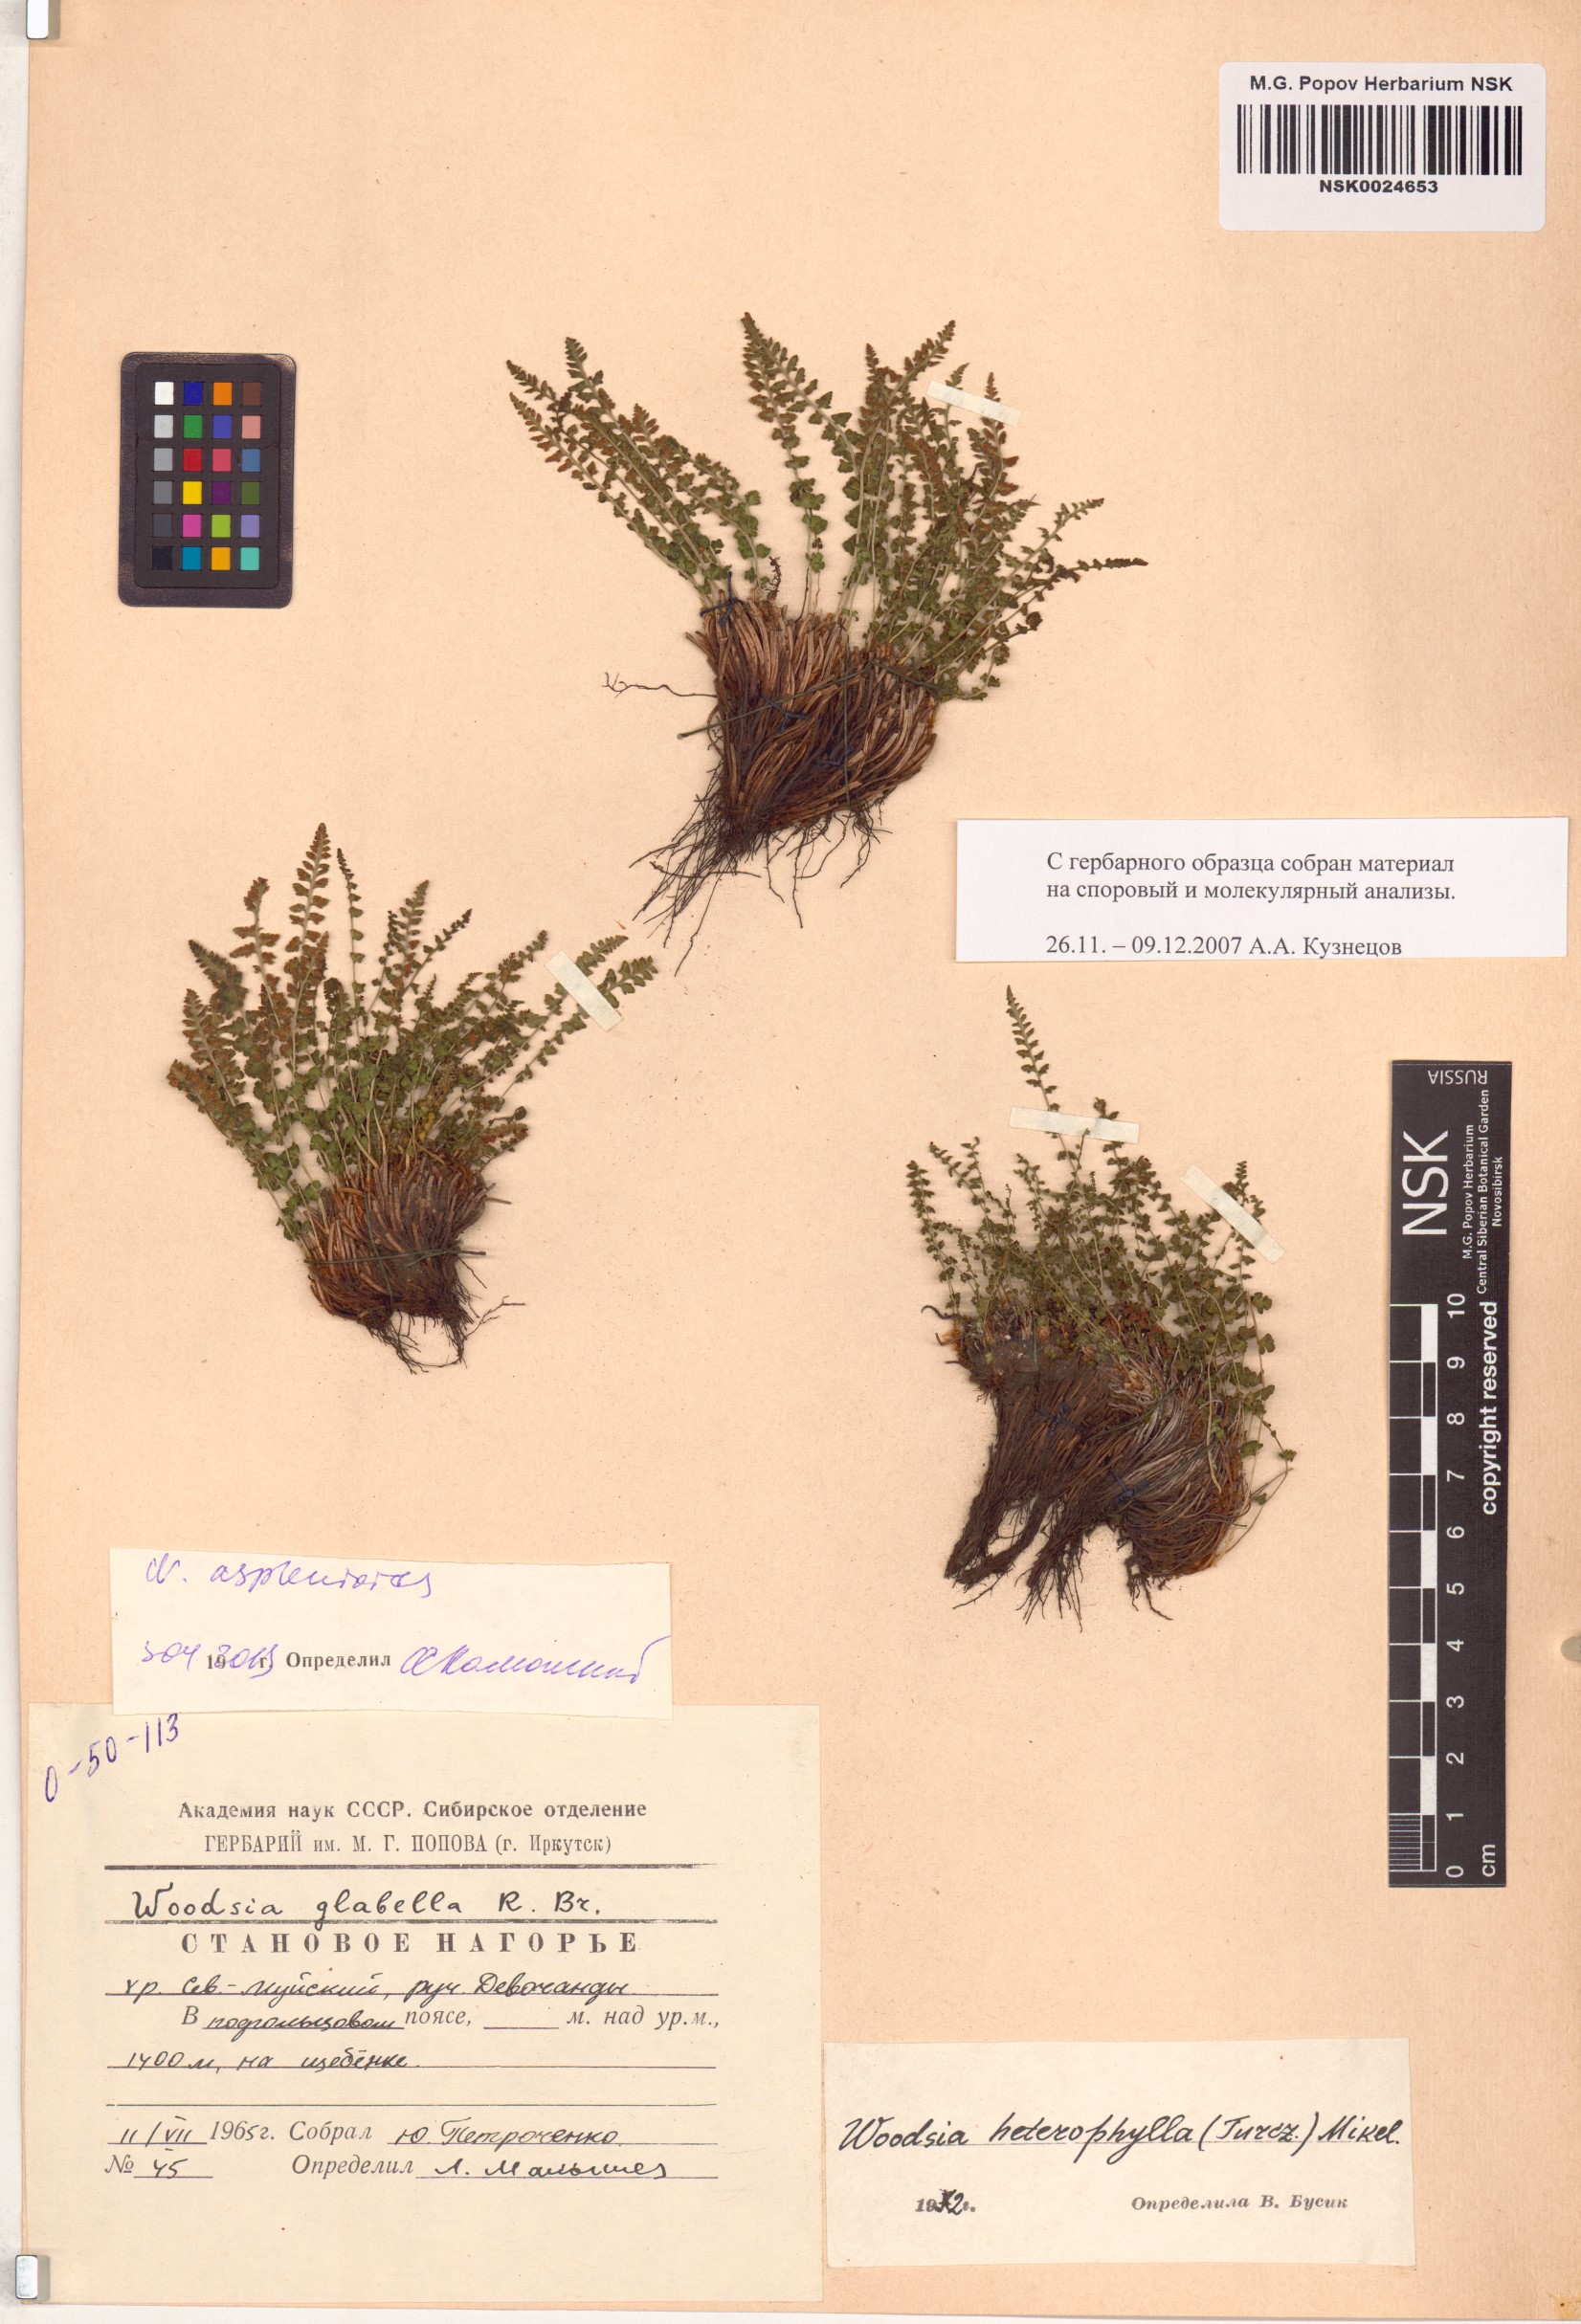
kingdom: Plantae
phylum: Tracheophyta
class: Polypodiopsida
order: Polypodiales
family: Woodsiaceae
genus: Woodsia
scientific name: Woodsia glabella
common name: Smooth woodsia
